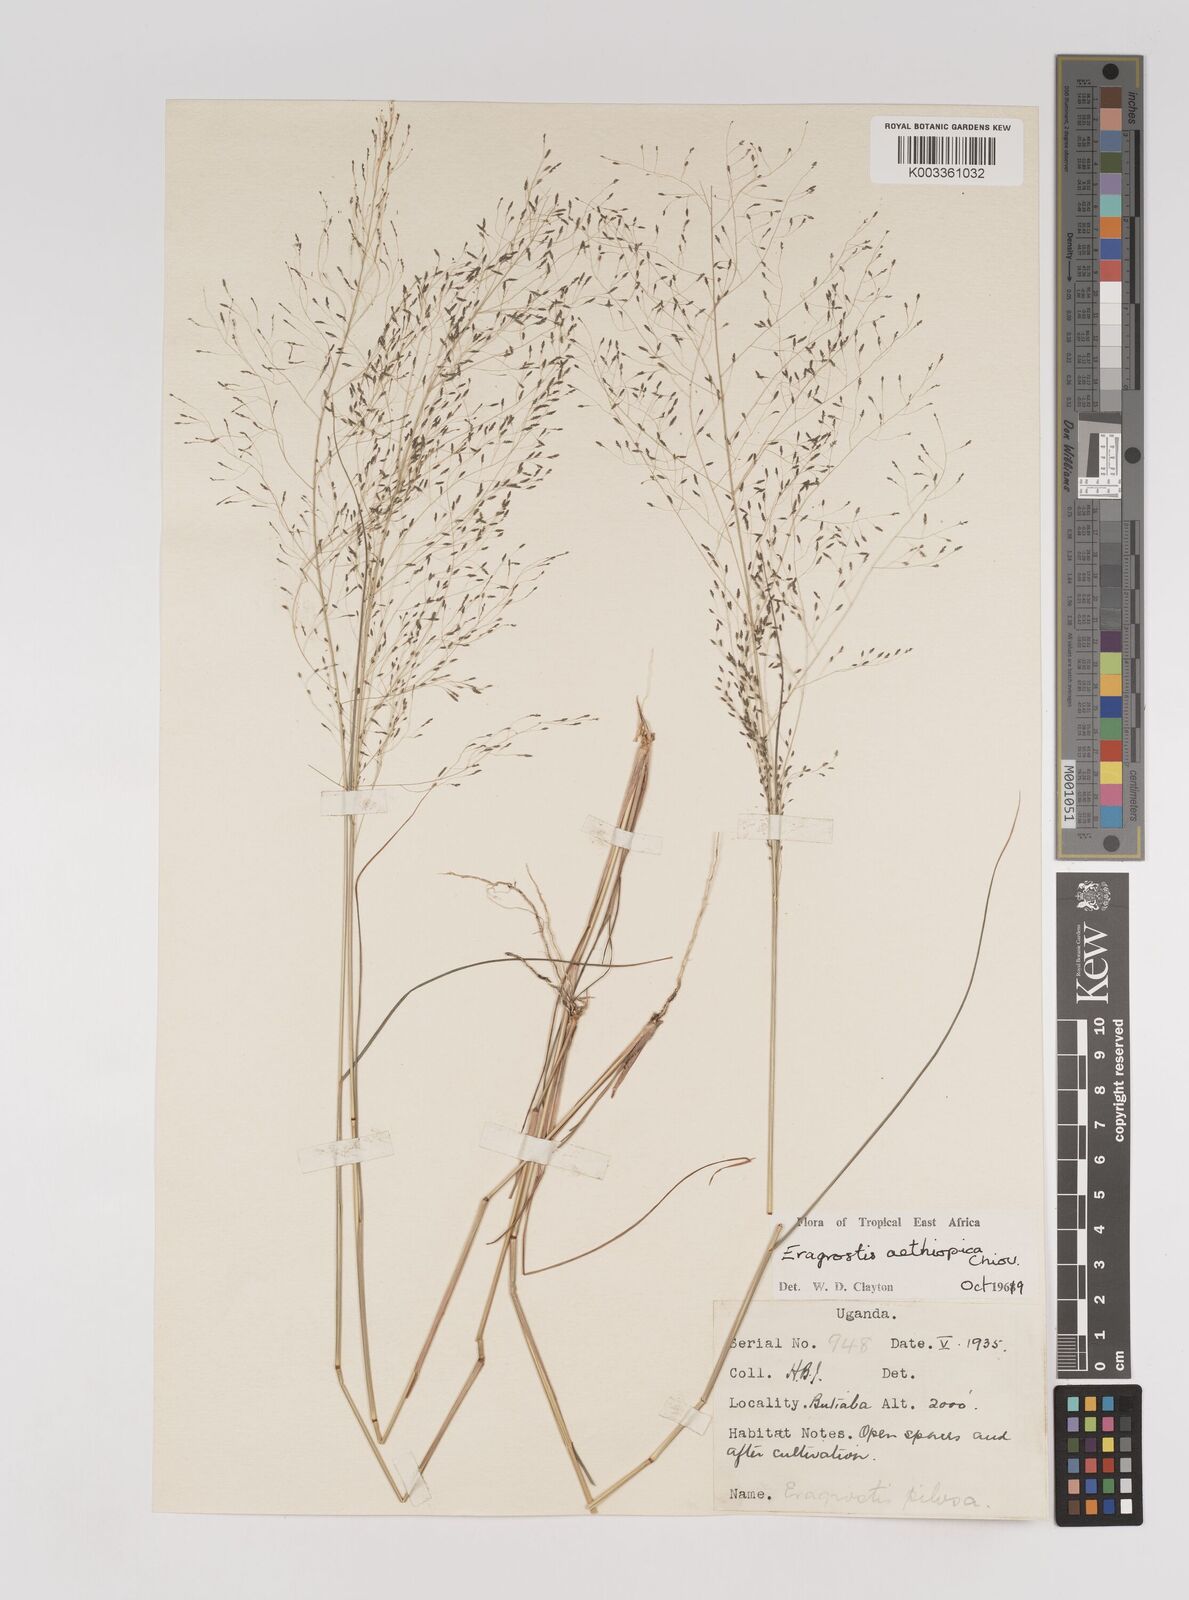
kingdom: Plantae
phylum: Tracheophyta
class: Liliopsida
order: Poales
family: Poaceae
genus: Eragrostis
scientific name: Eragrostis aethiopica
